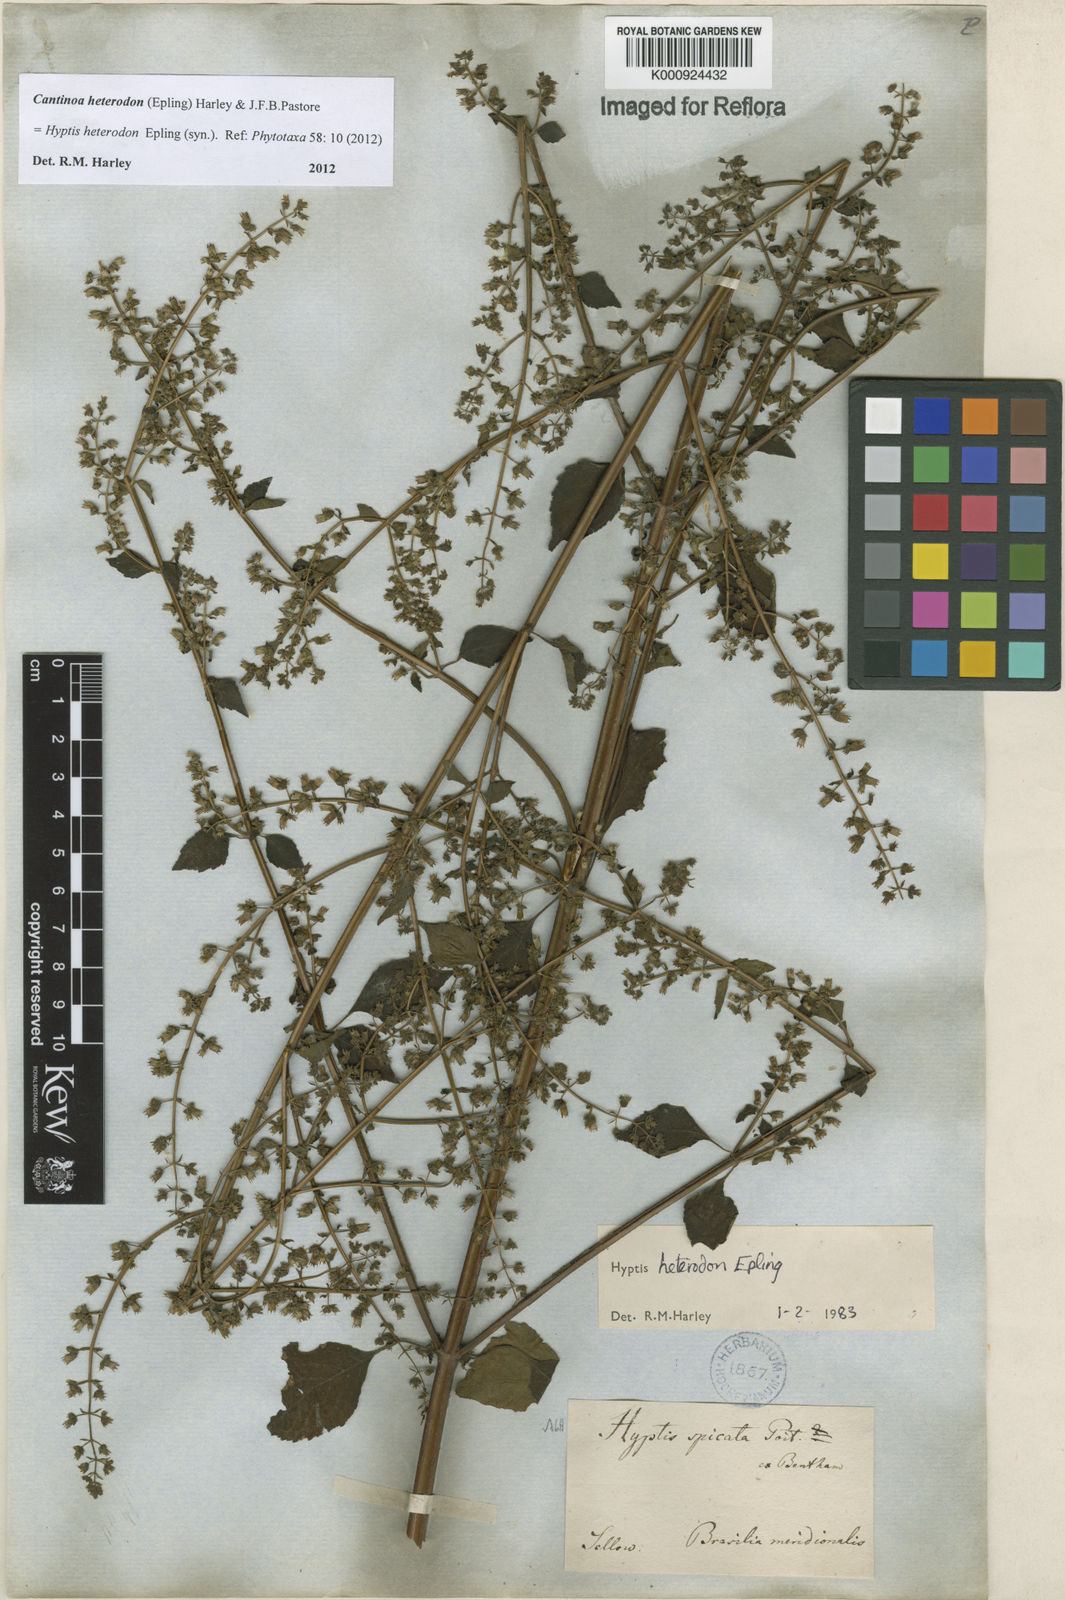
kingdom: Plantae
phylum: Tracheophyta
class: Magnoliopsida
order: Lamiales
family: Lamiaceae
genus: Cantinoa
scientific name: Cantinoa heterodon
